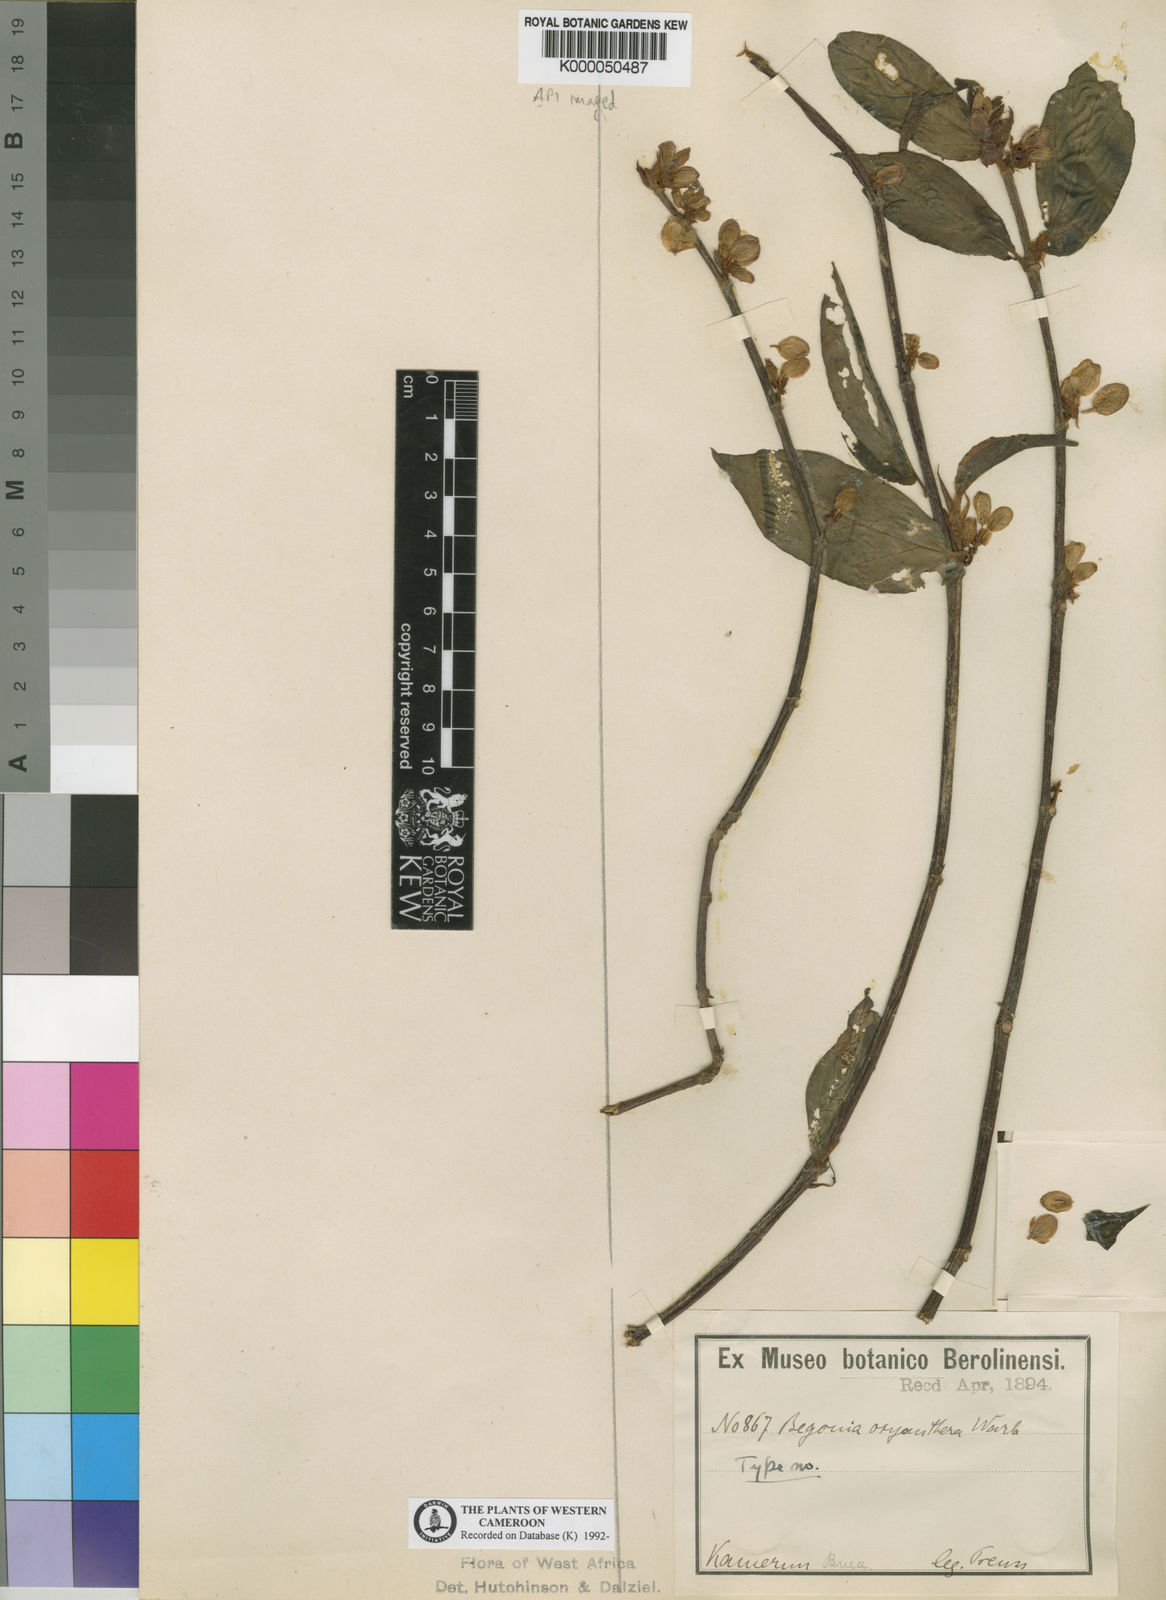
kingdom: Plantae
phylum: Tracheophyta
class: Magnoliopsida
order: Cucurbitales
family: Begoniaceae
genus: Begonia
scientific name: Begonia oxyanthera
